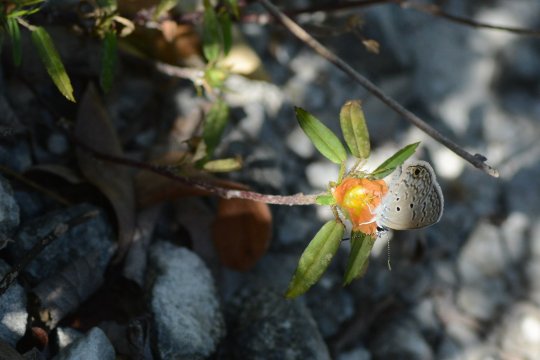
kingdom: Animalia
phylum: Arthropoda
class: Insecta
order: Lepidoptera
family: Lycaenidae
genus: Hemiargus
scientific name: Hemiargus ceraunus
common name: Ceraunus Blue
